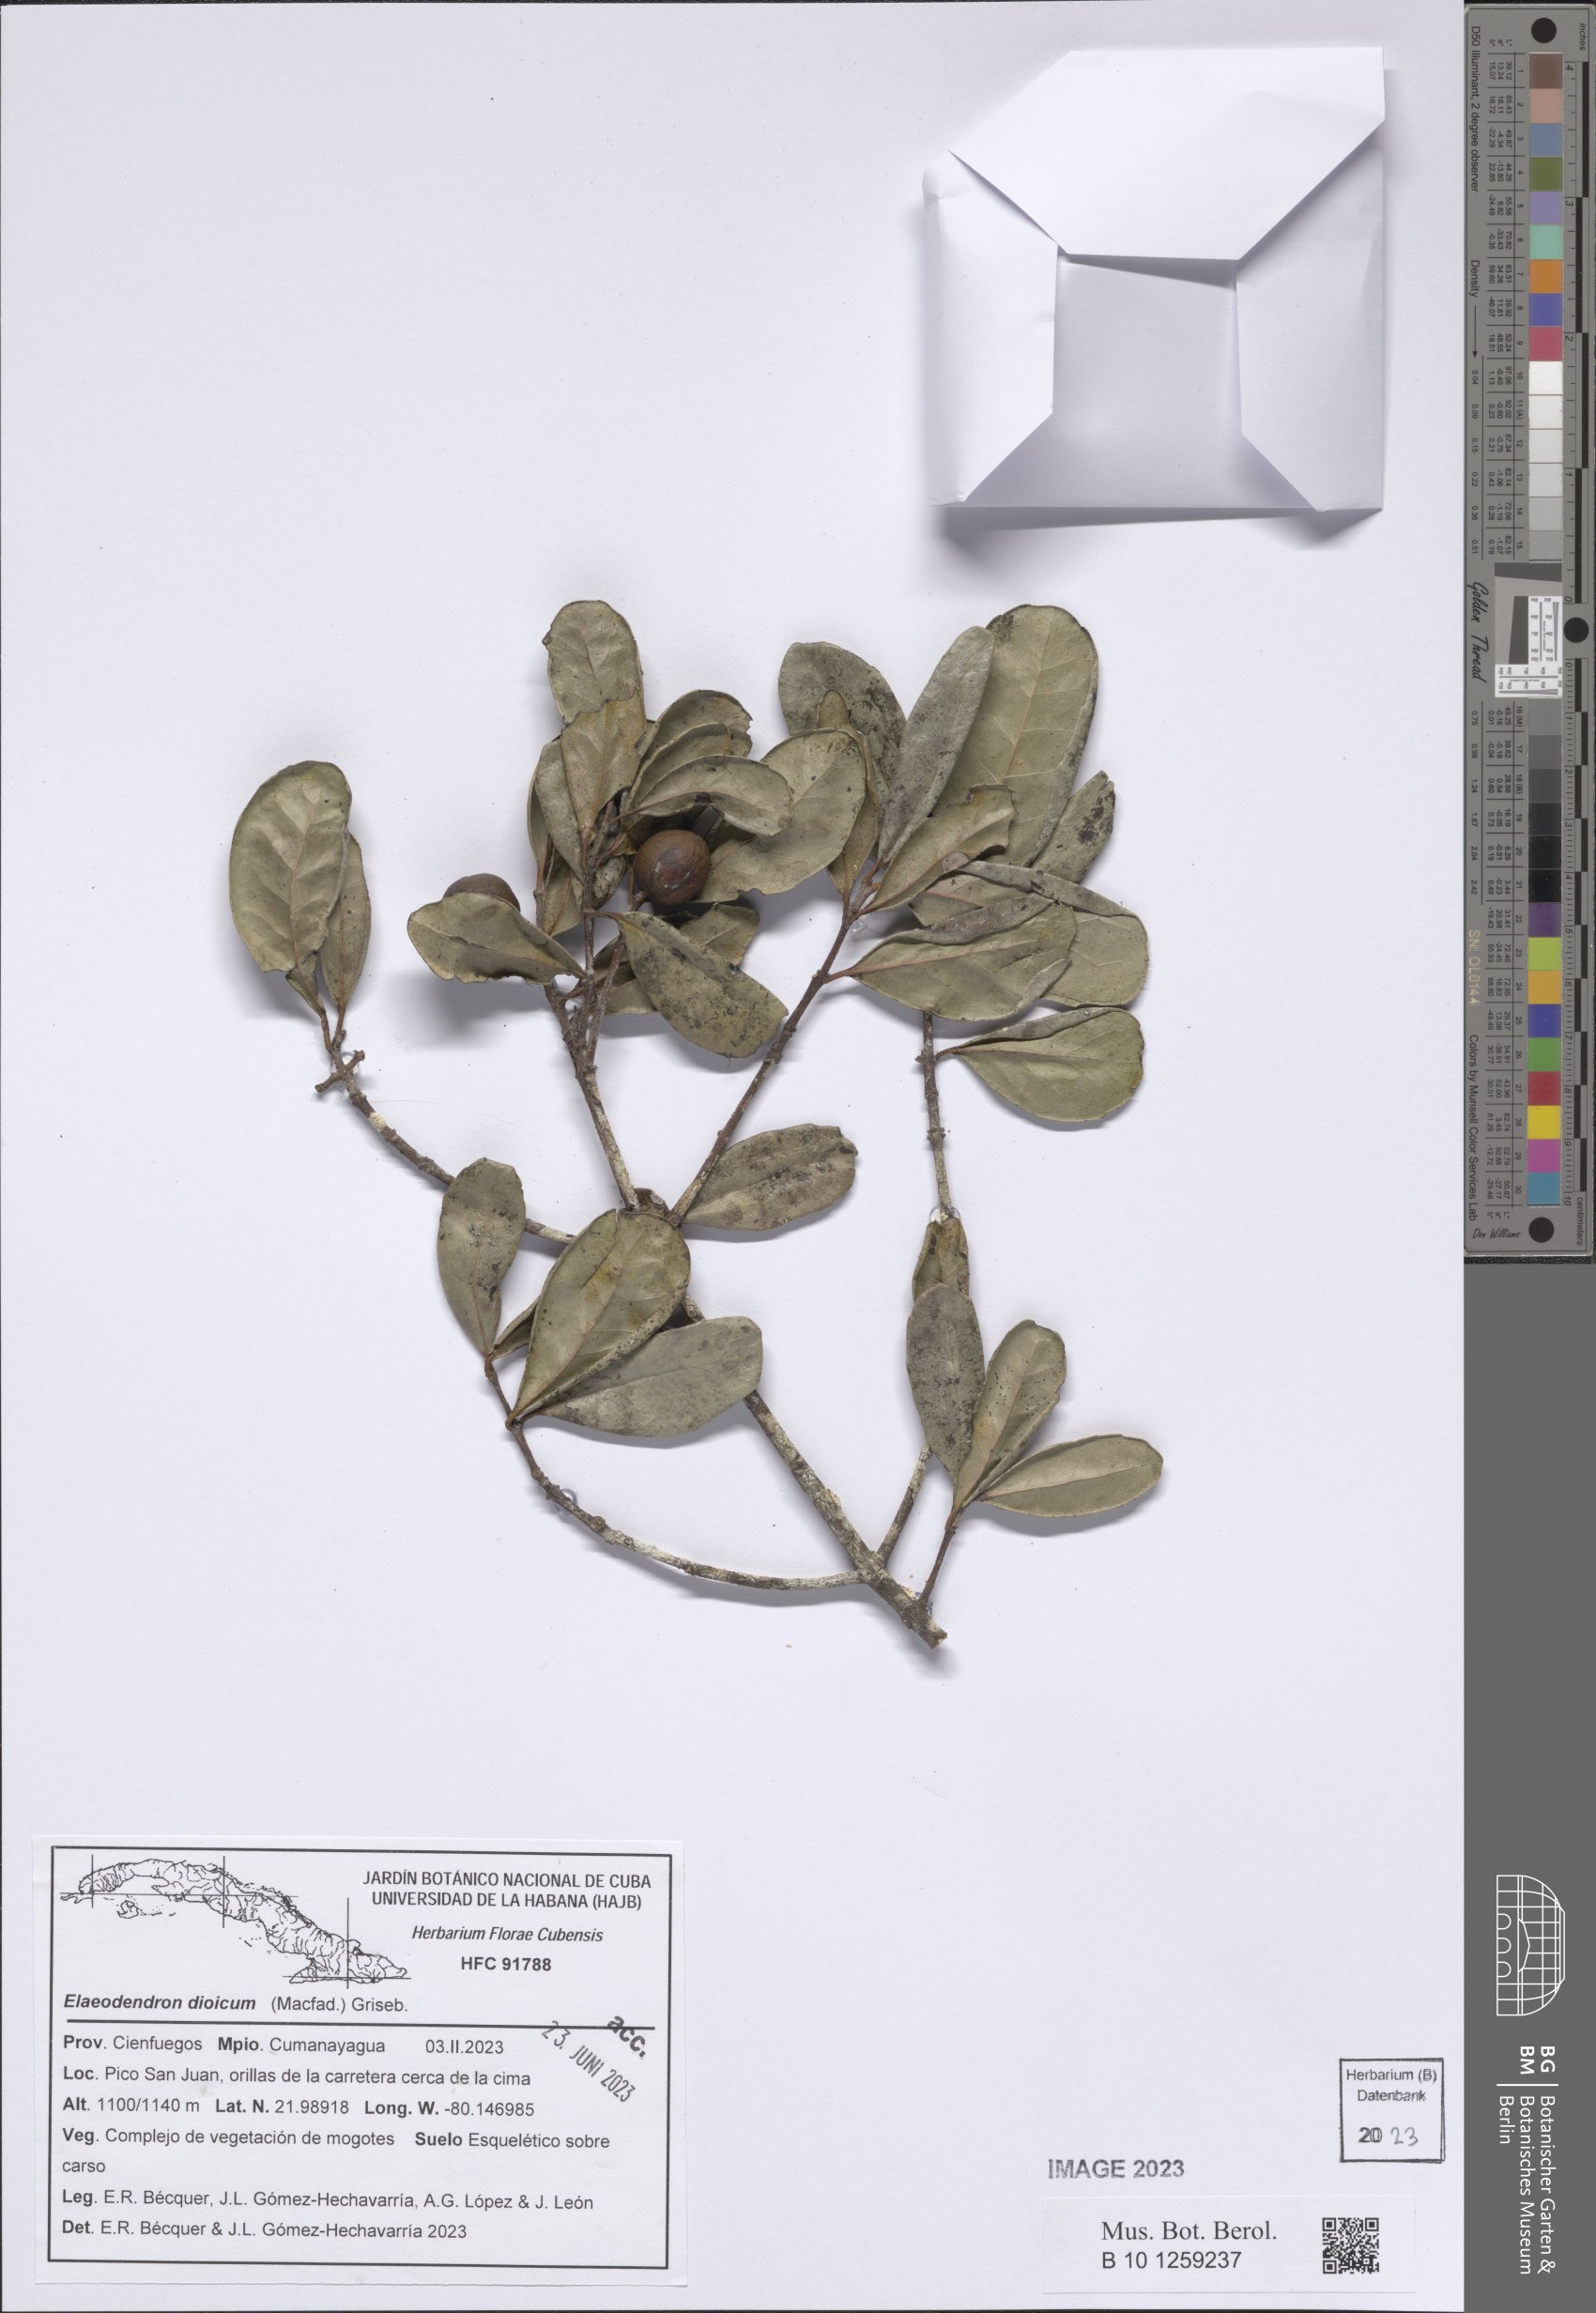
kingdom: Plantae
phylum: Tracheophyta
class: Magnoliopsida
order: Celastrales
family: Celastraceae
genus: Elaeodendron
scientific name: Elaeodendron xylocarpum
